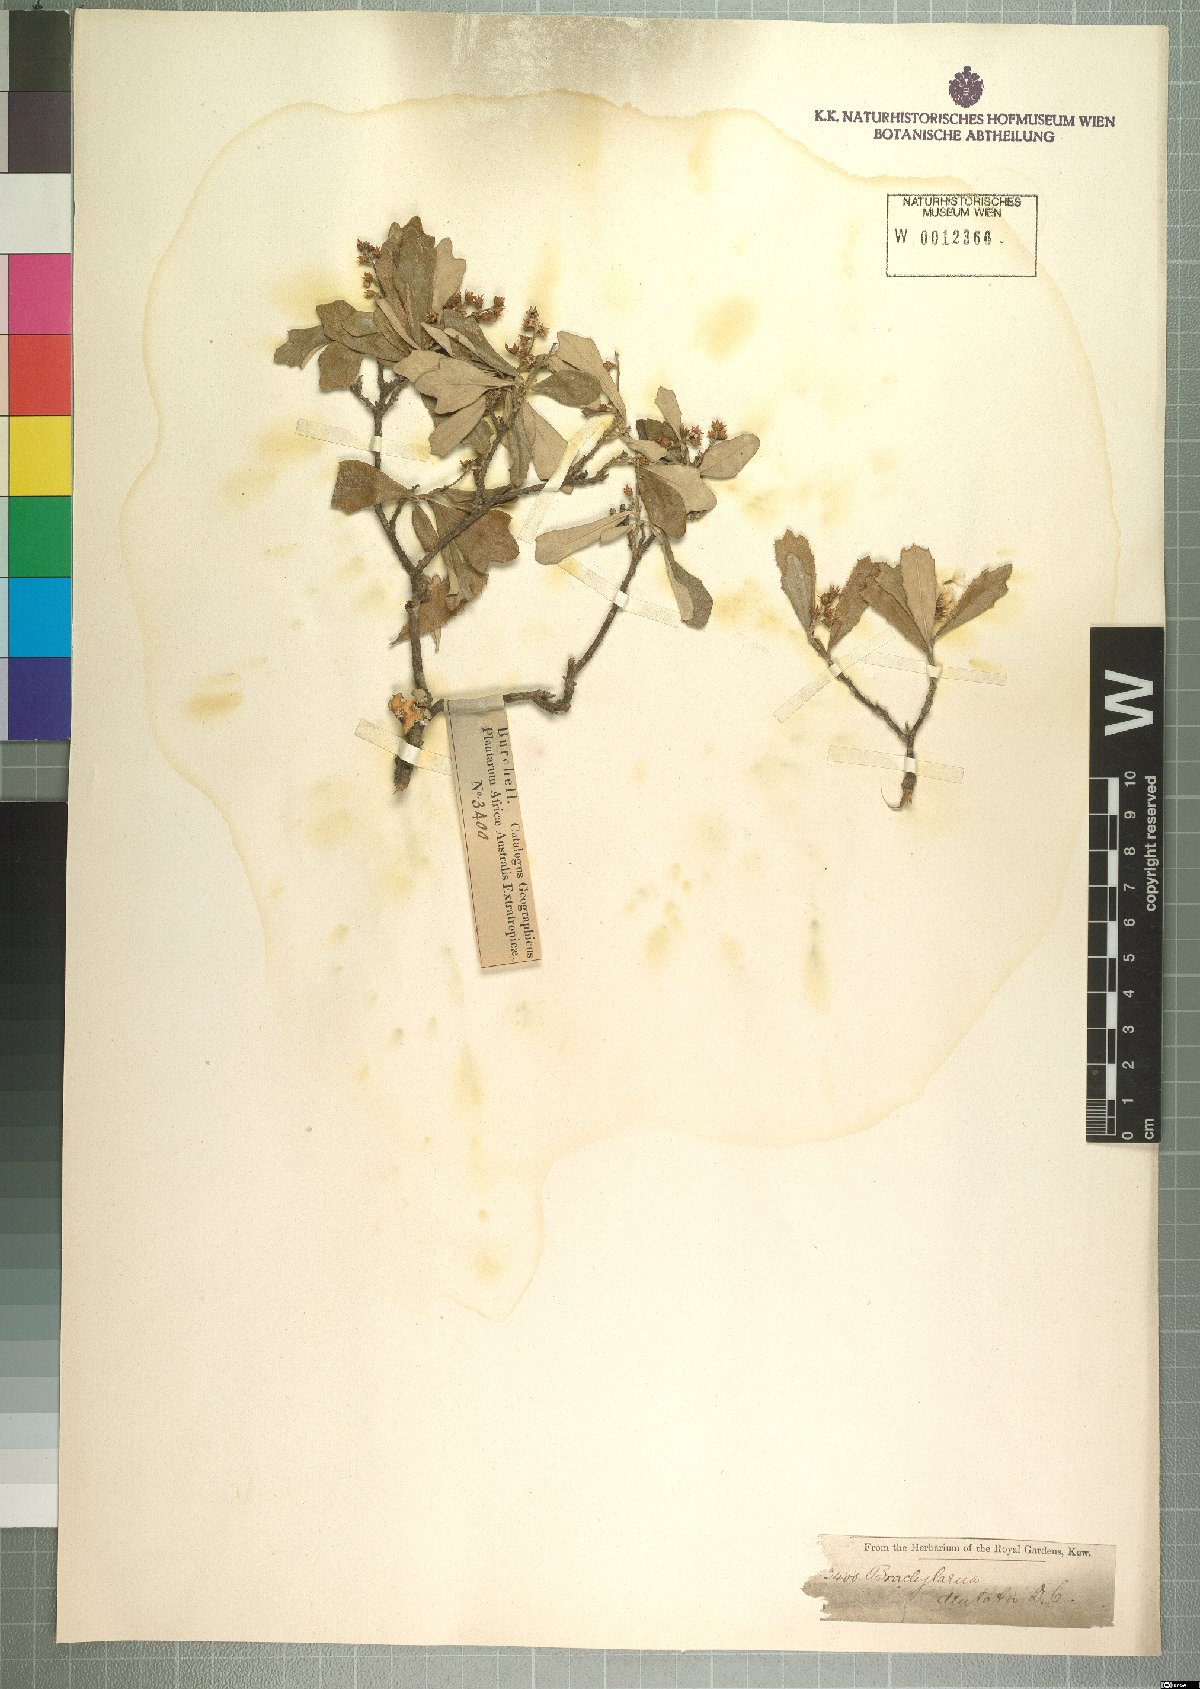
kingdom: Plantae
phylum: Tracheophyta
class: Magnoliopsida
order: Asterales
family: Asteraceae
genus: Brachylaena
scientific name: Brachylaena elliptica
